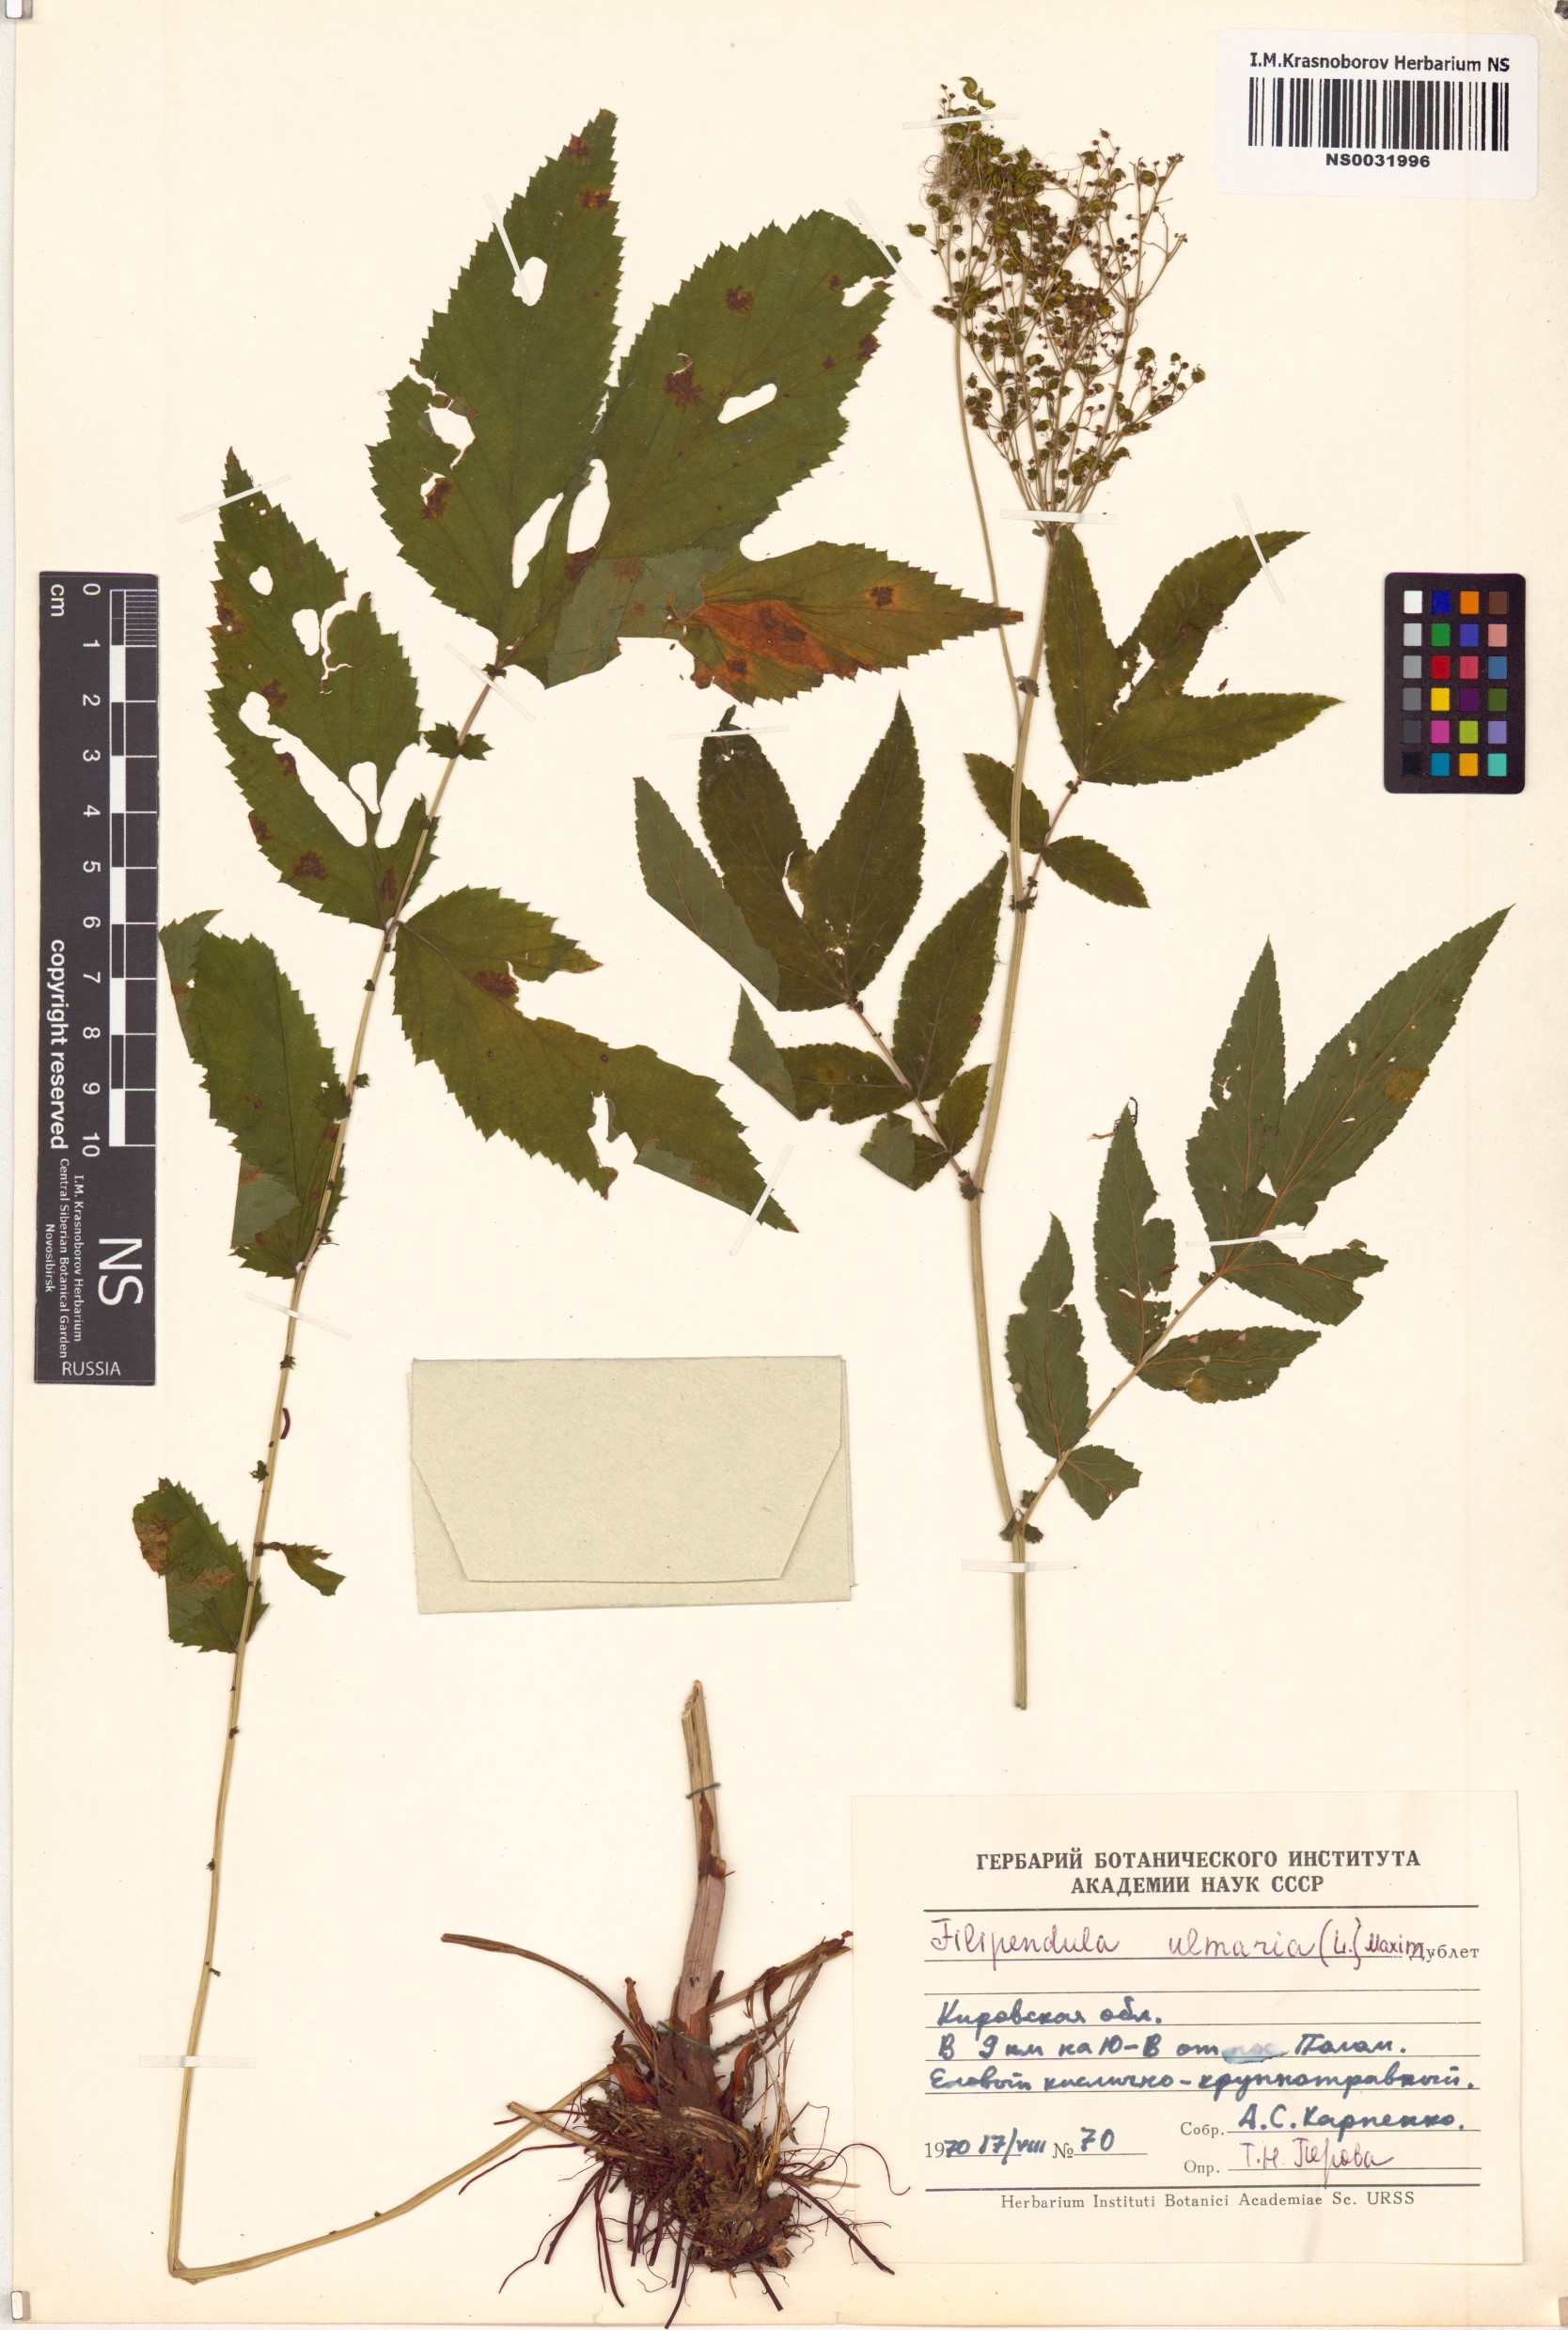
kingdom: Plantae
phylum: Tracheophyta
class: Magnoliopsida
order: Rosales
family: Rosaceae
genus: Filipendula
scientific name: Filipendula ulmaria
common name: Meadowsweet
